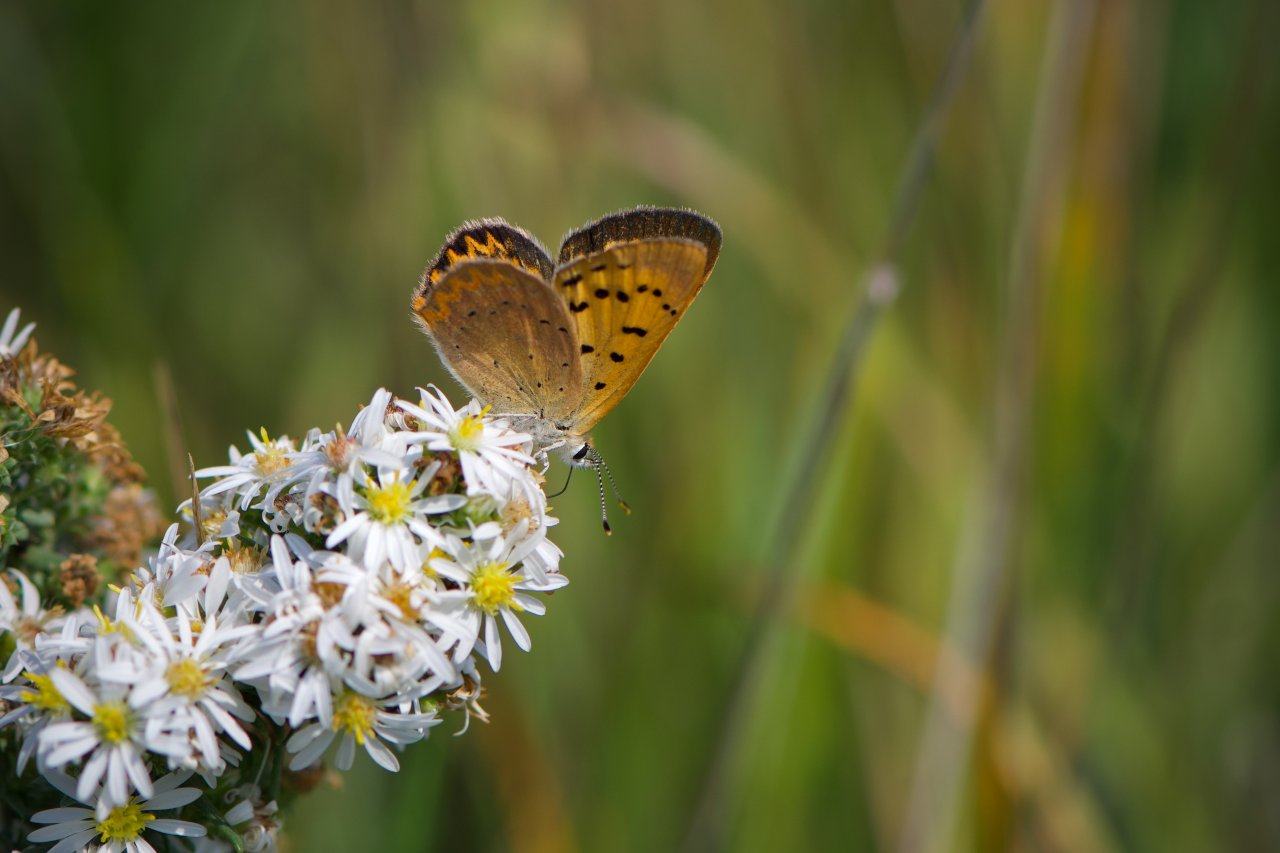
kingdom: Animalia
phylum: Arthropoda
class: Insecta
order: Lepidoptera
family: Sesiidae
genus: Sesia
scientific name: Sesia Lycaena helloides
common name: Purplish Copper
